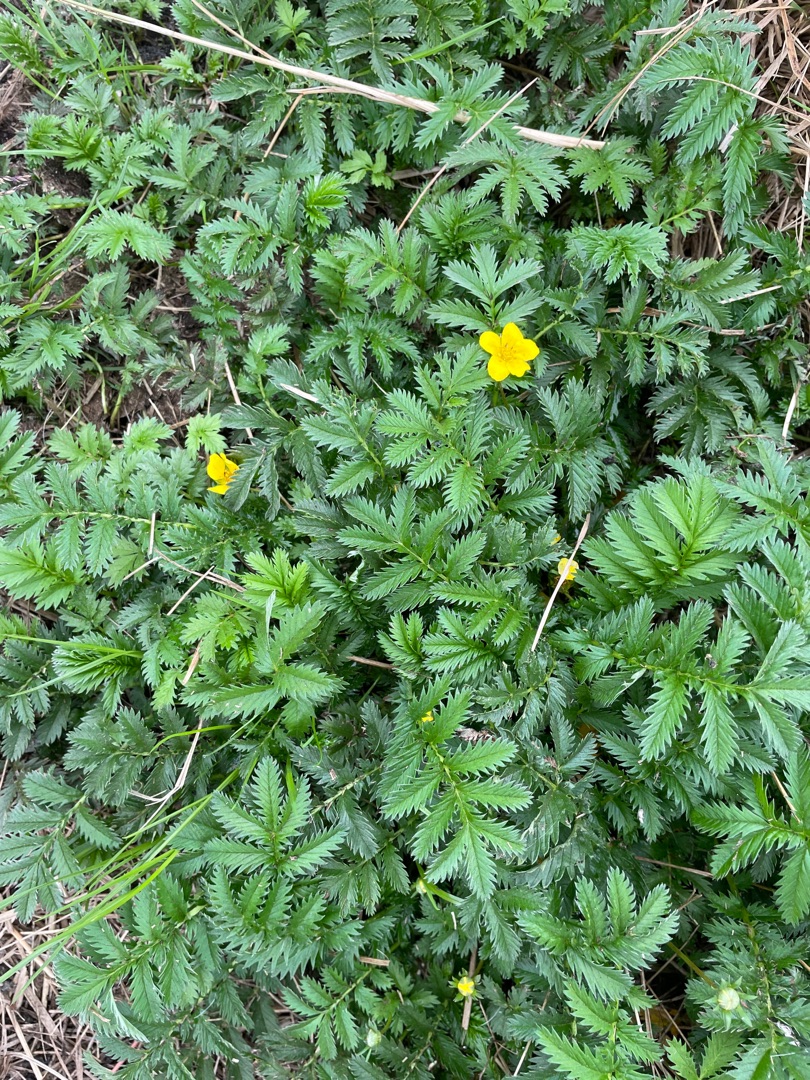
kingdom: Plantae
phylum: Tracheophyta
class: Magnoliopsida
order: Rosales
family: Rosaceae
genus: Argentina
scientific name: Argentina anserina
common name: Gåsepotentil
